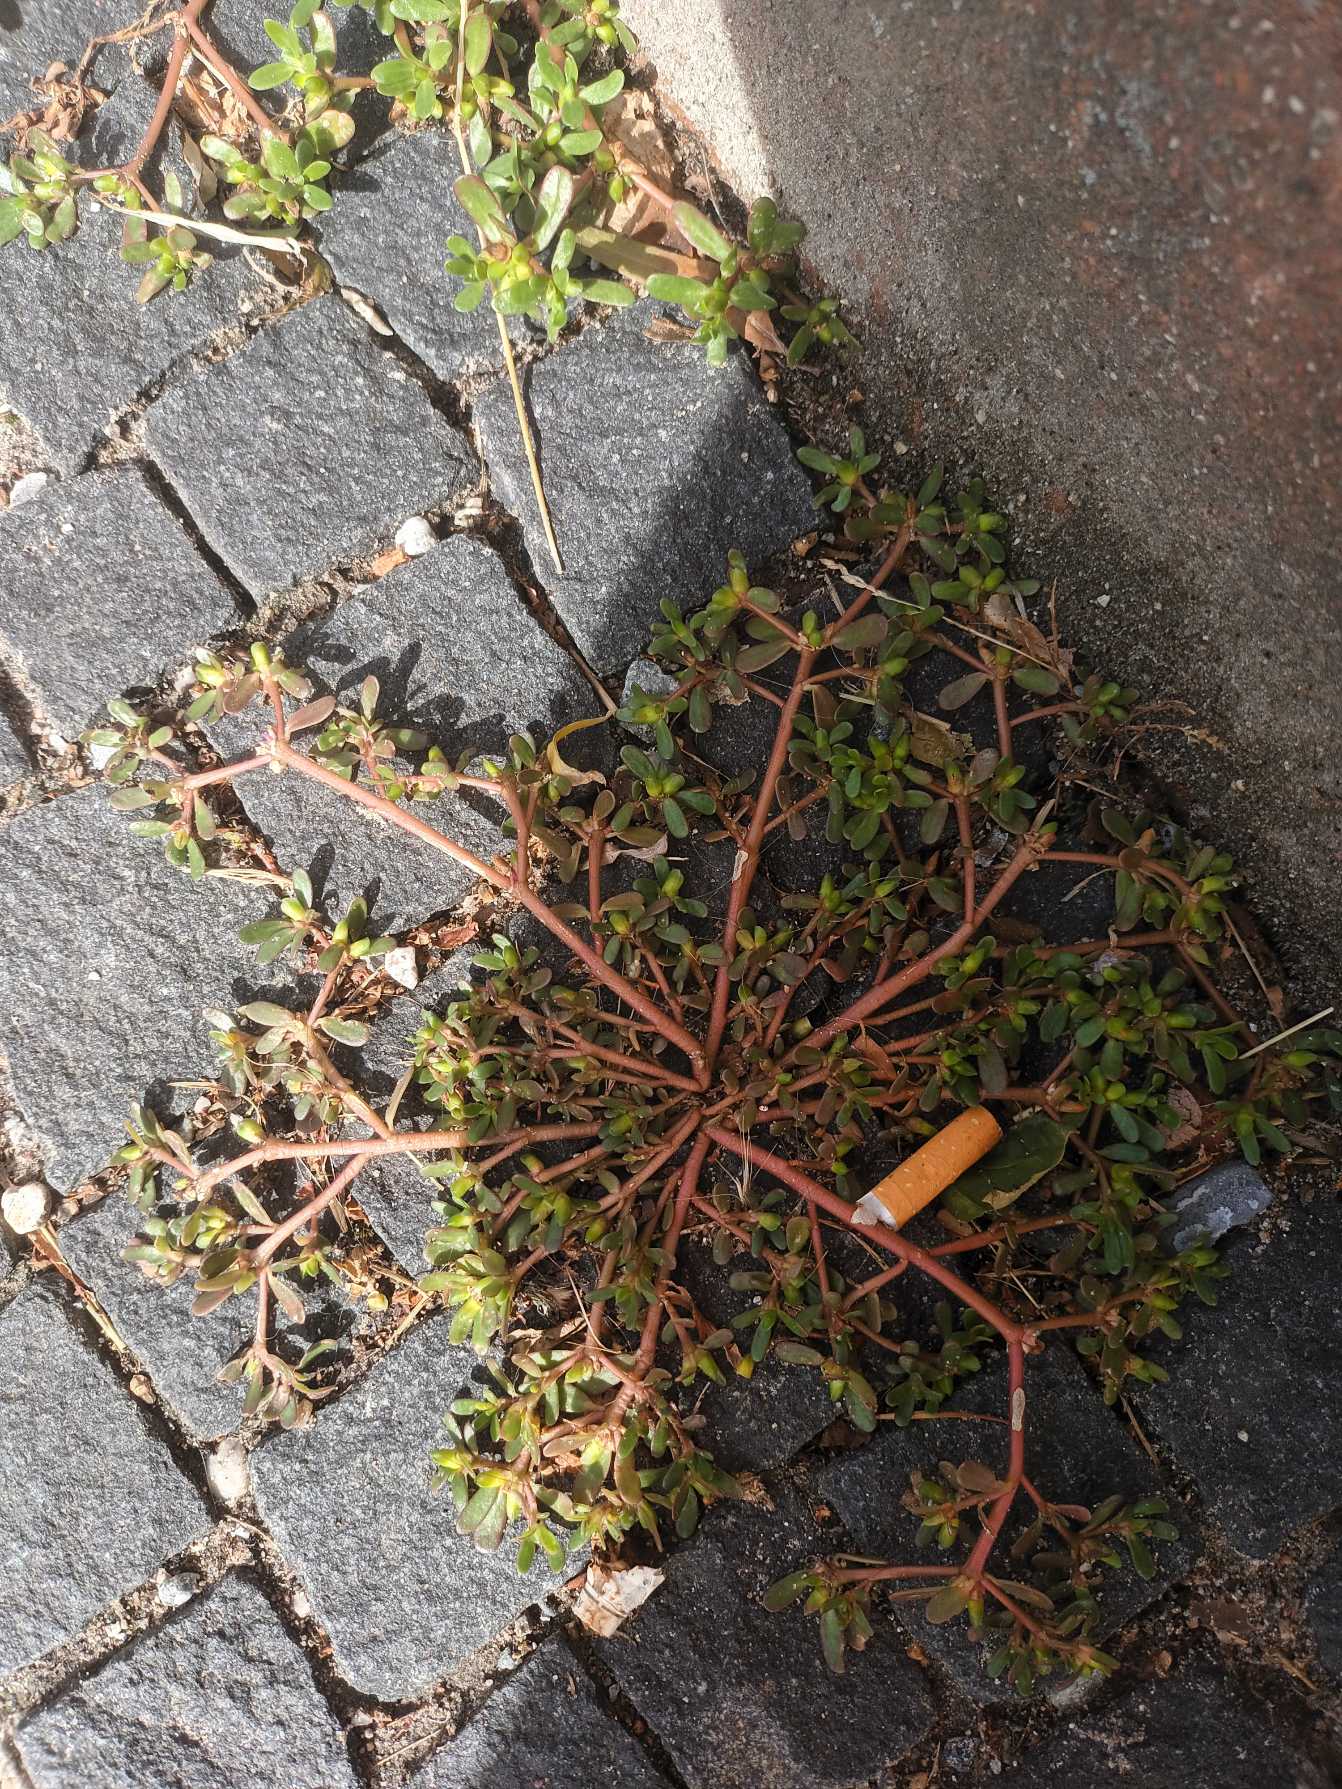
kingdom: Plantae
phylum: Tracheophyta
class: Magnoliopsida
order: Caryophyllales
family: Portulacaceae
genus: Portulaca
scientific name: Portulaca oleracea
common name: Portulak
